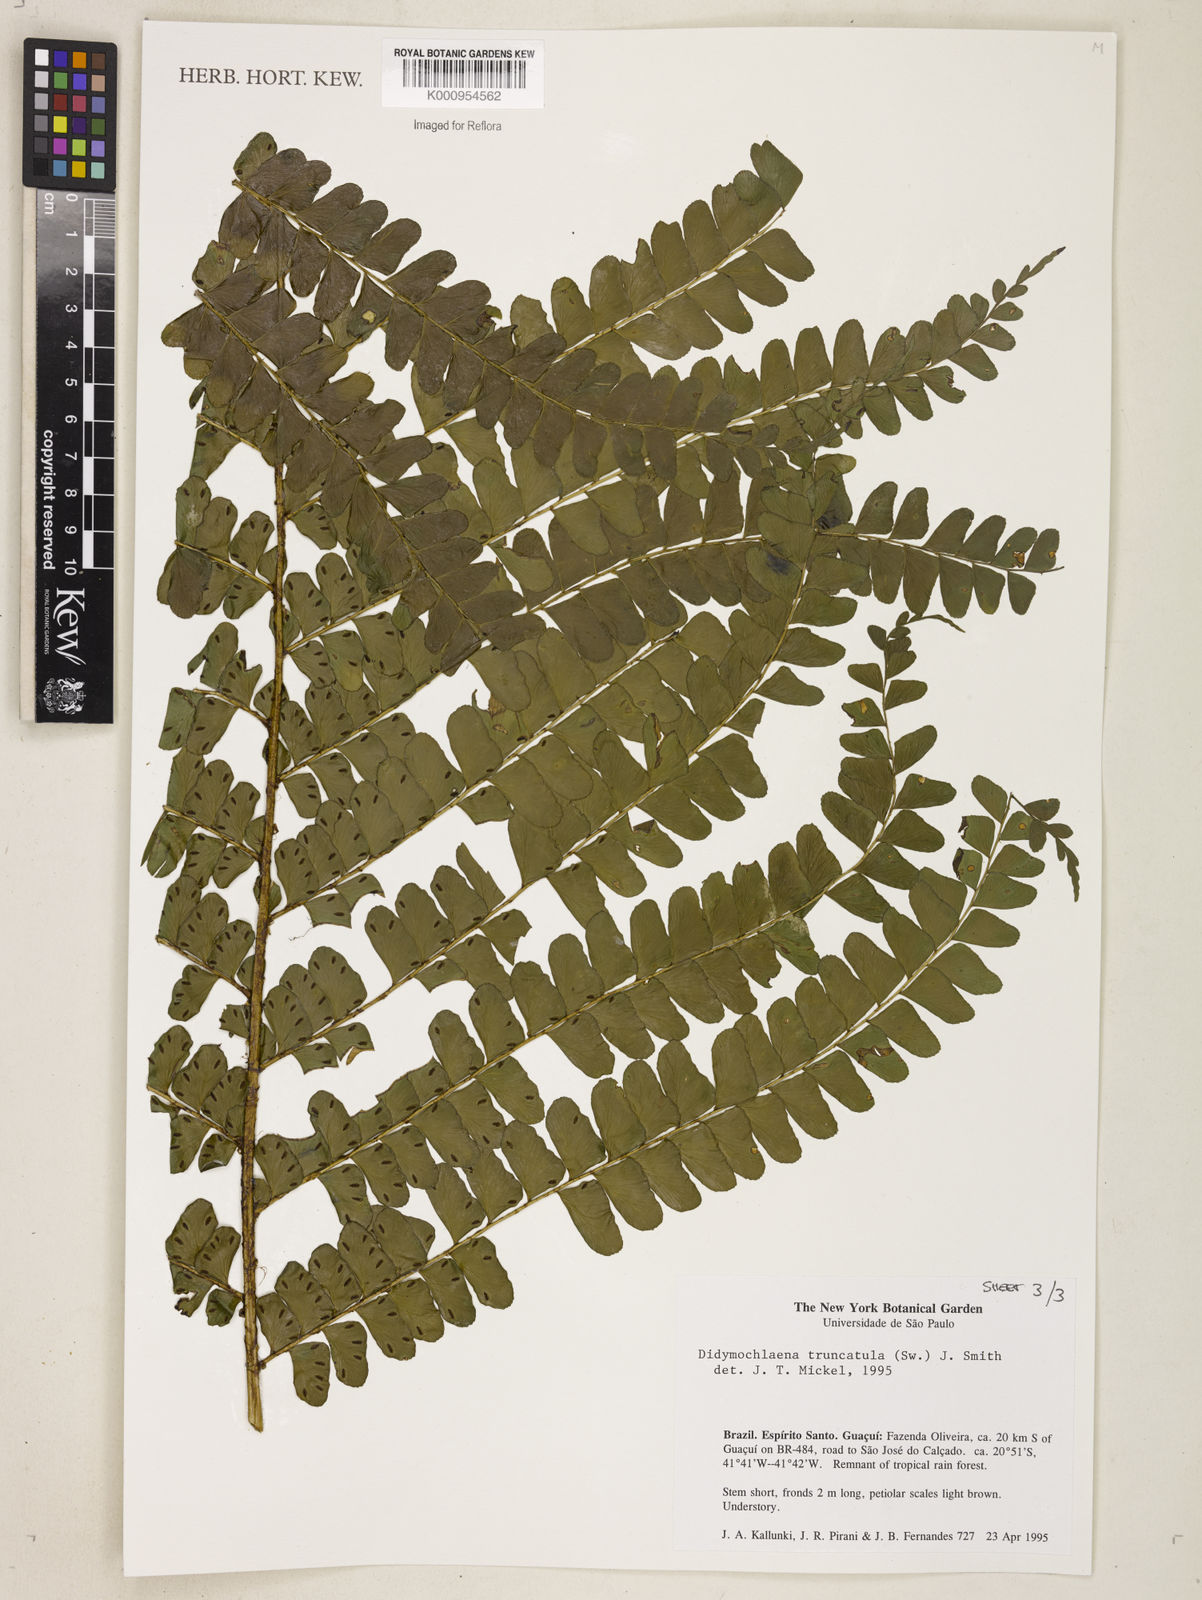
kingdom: Plantae
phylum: Tracheophyta
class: Polypodiopsida
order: Polypodiales
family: Didymochlaenaceae
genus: Didymochlaena
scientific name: Didymochlaena truncatula
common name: Mahogany fern
